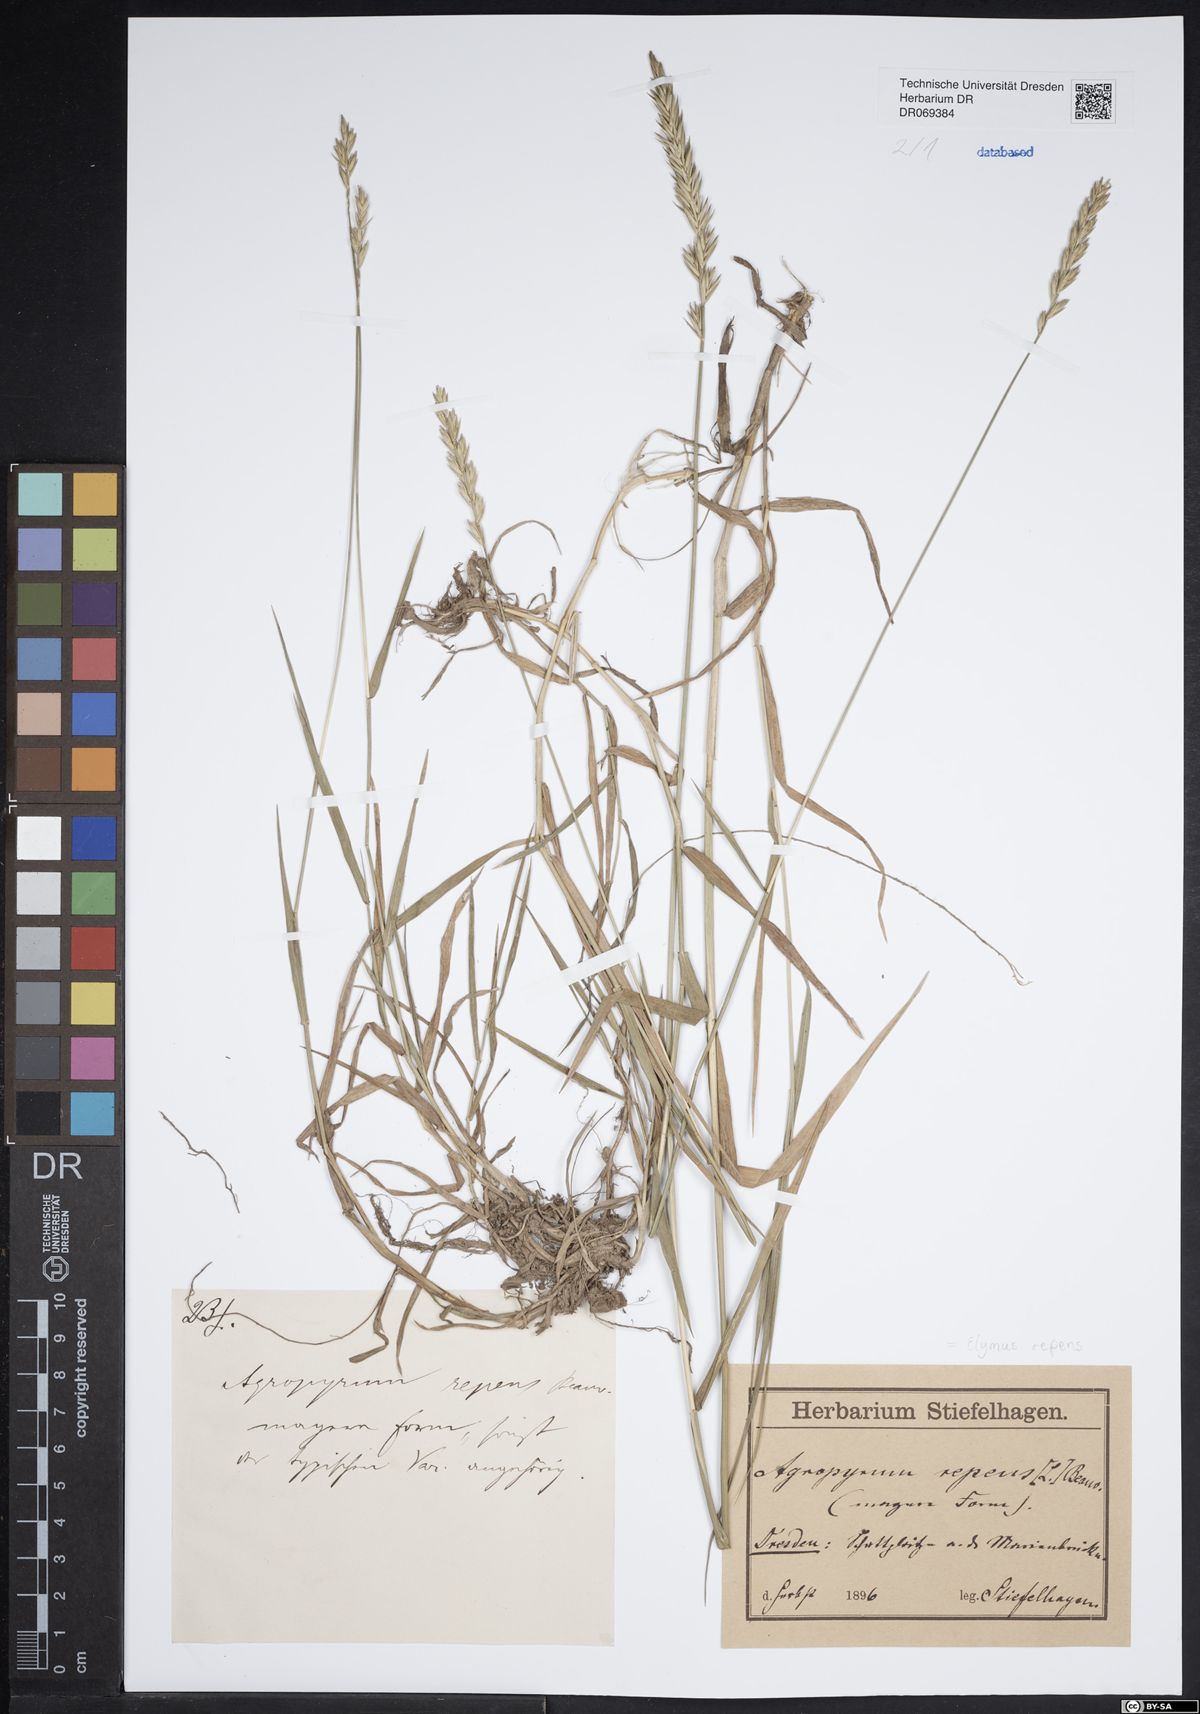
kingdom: Plantae
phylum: Tracheophyta
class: Liliopsida
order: Poales
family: Poaceae
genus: Elymus
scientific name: Elymus repens
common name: Quackgrass
